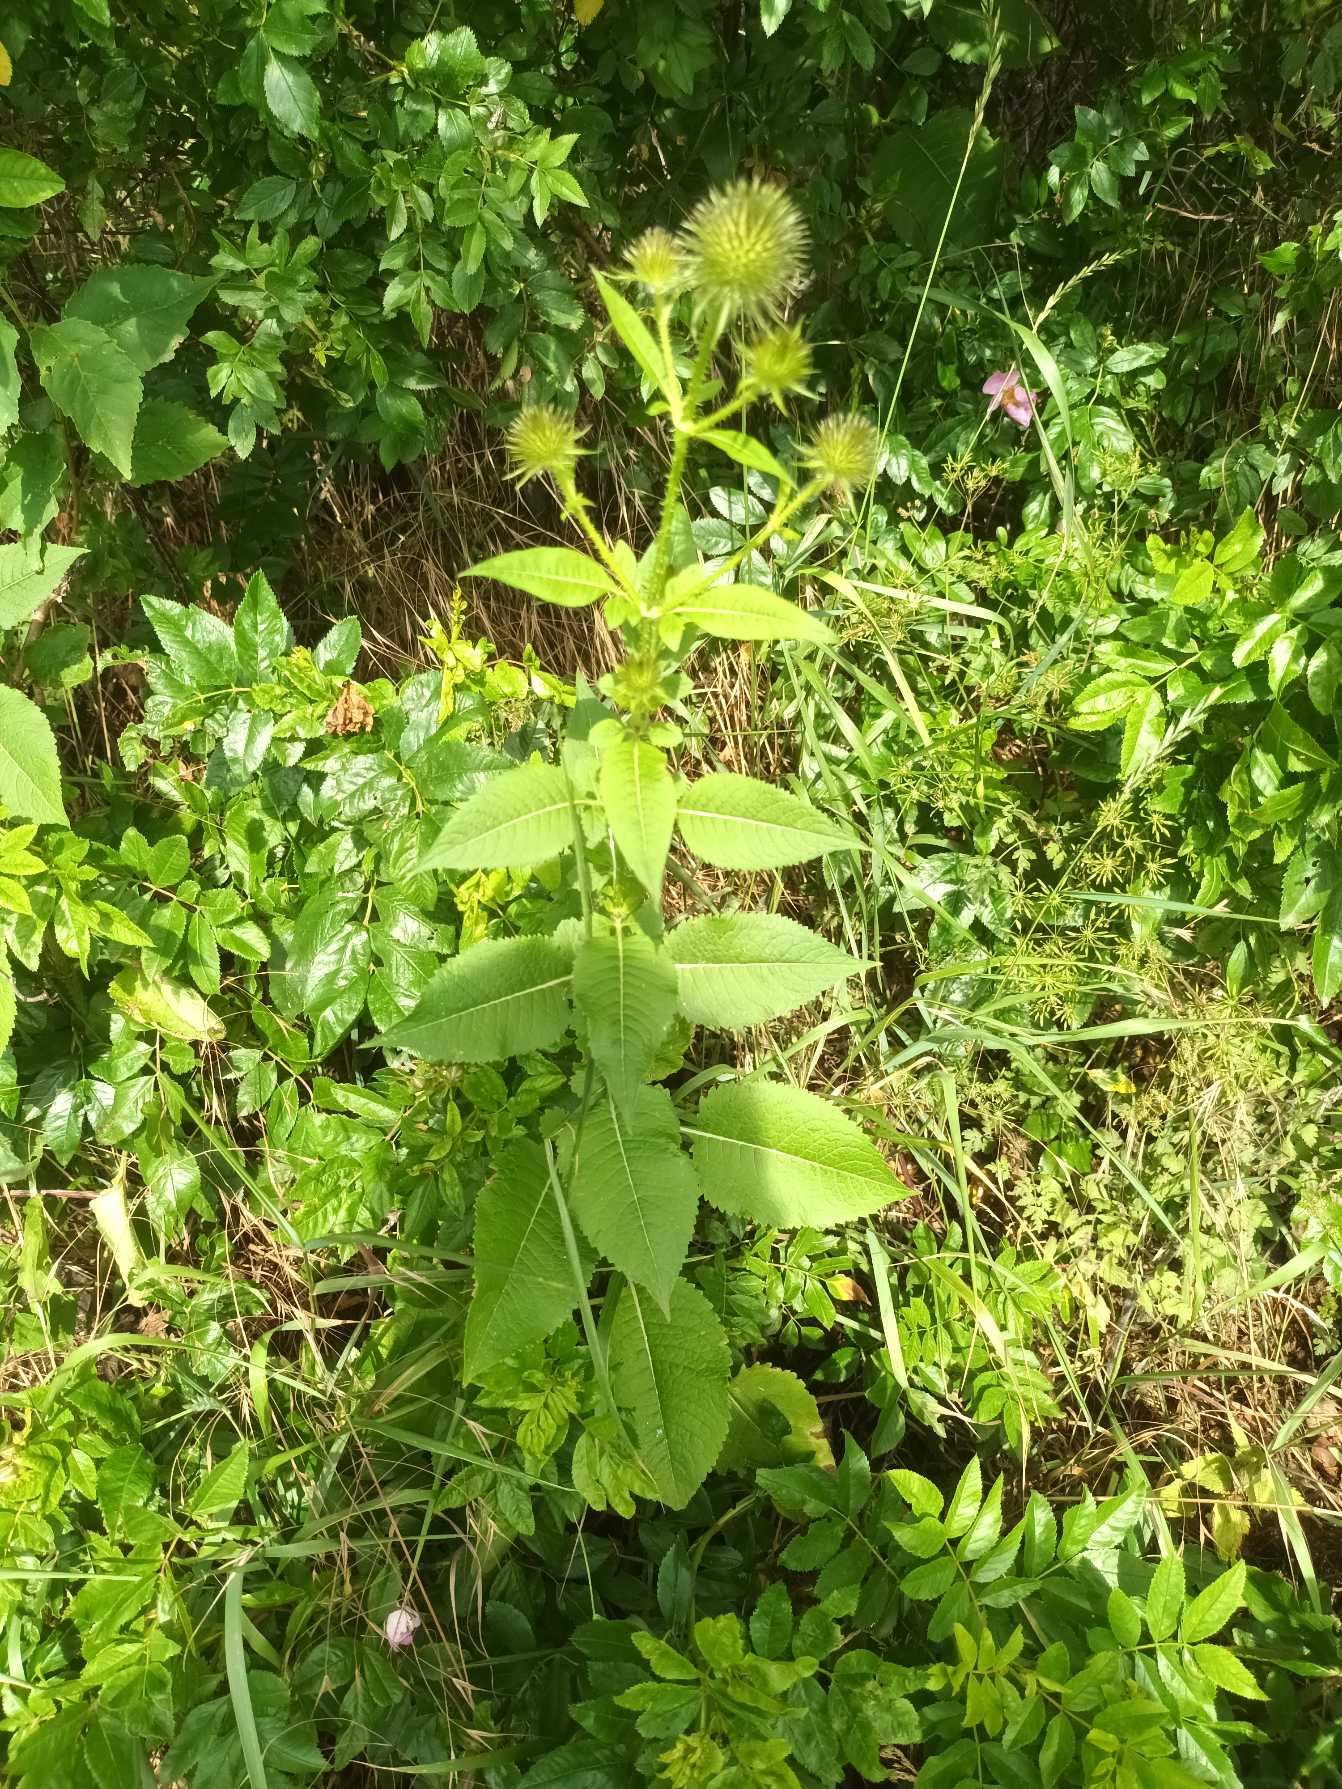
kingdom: Plantae
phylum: Tracheophyta
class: Magnoliopsida
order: Dipsacales
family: Caprifoliaceae
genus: Dipsacus
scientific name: Dipsacus strigosus
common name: Pindsvin-kartebolle
